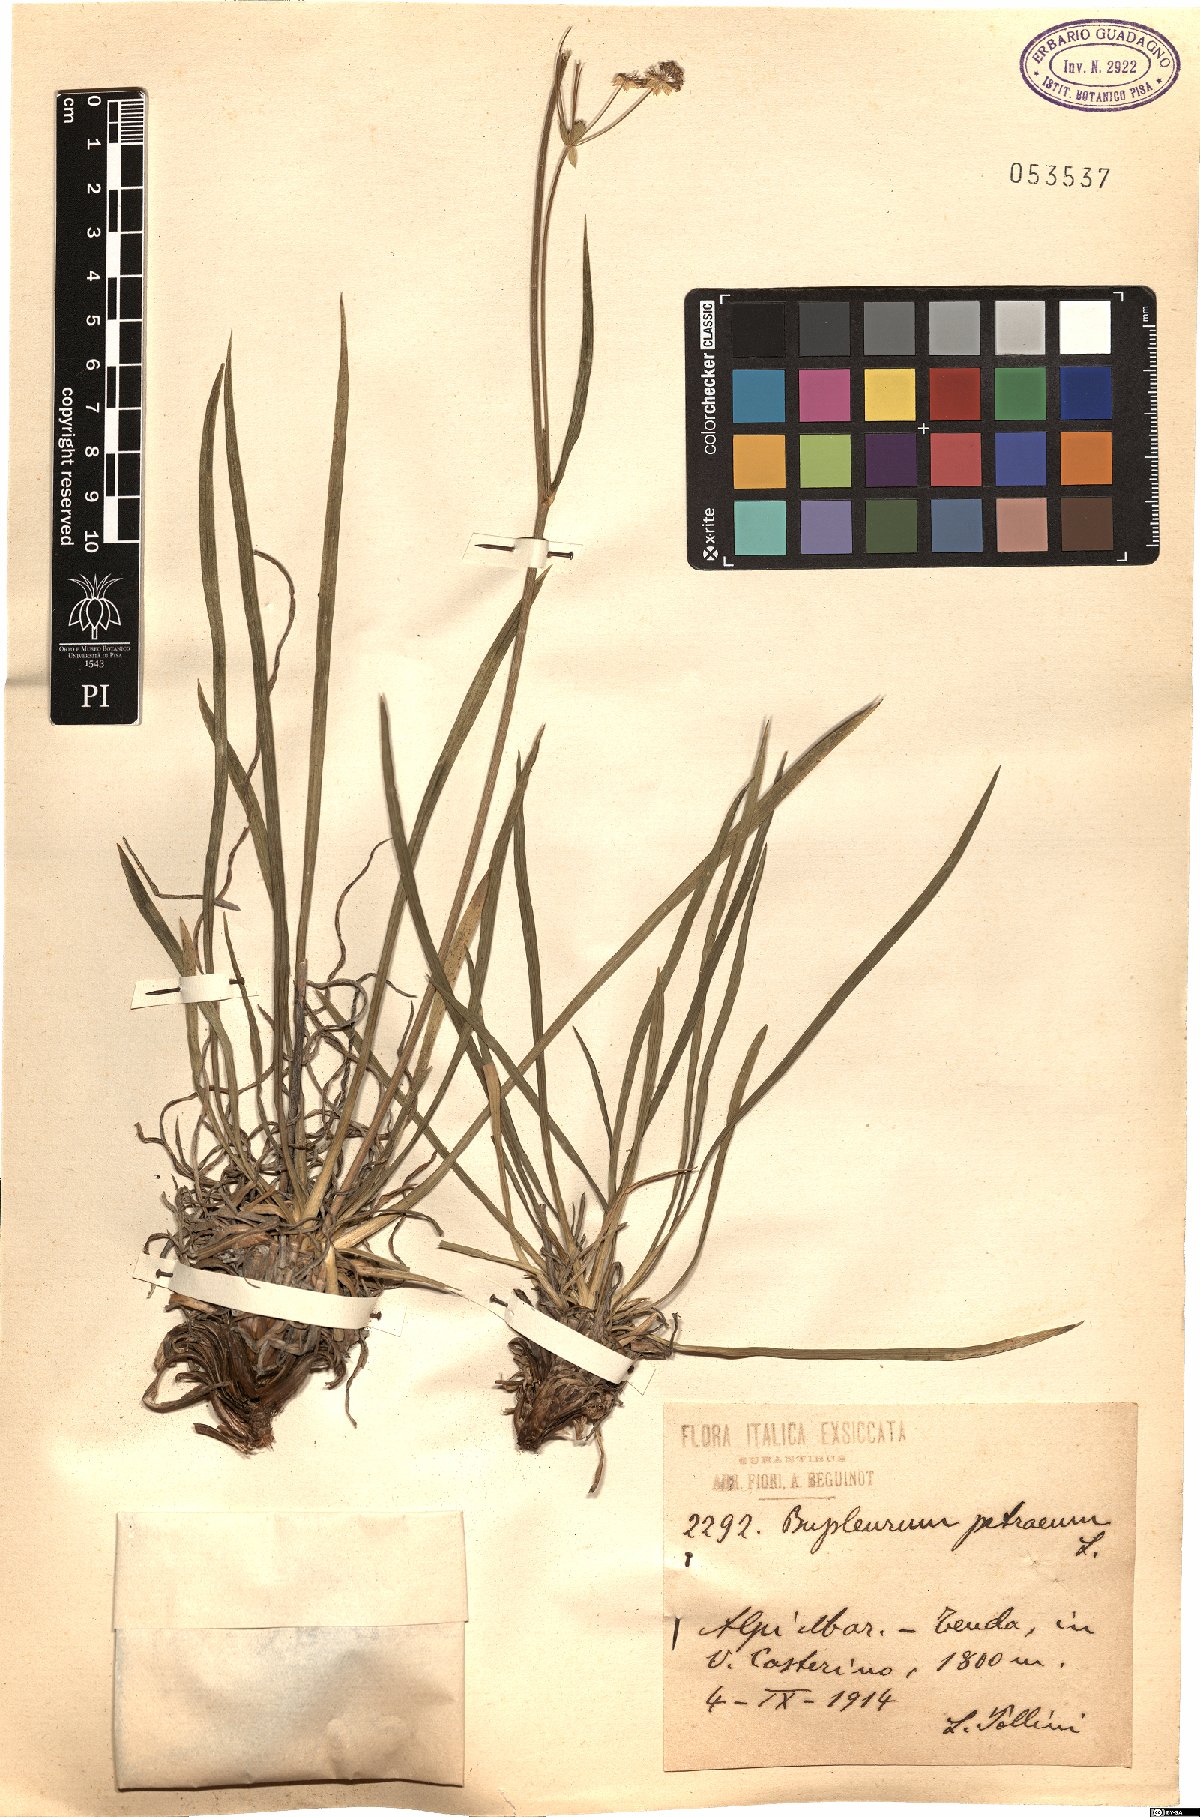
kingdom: Plantae
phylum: Tracheophyta
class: Magnoliopsida
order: Apiales
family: Apiaceae
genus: Bupleurum
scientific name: Bupleurum petraeum
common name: Rock hare's-ear
